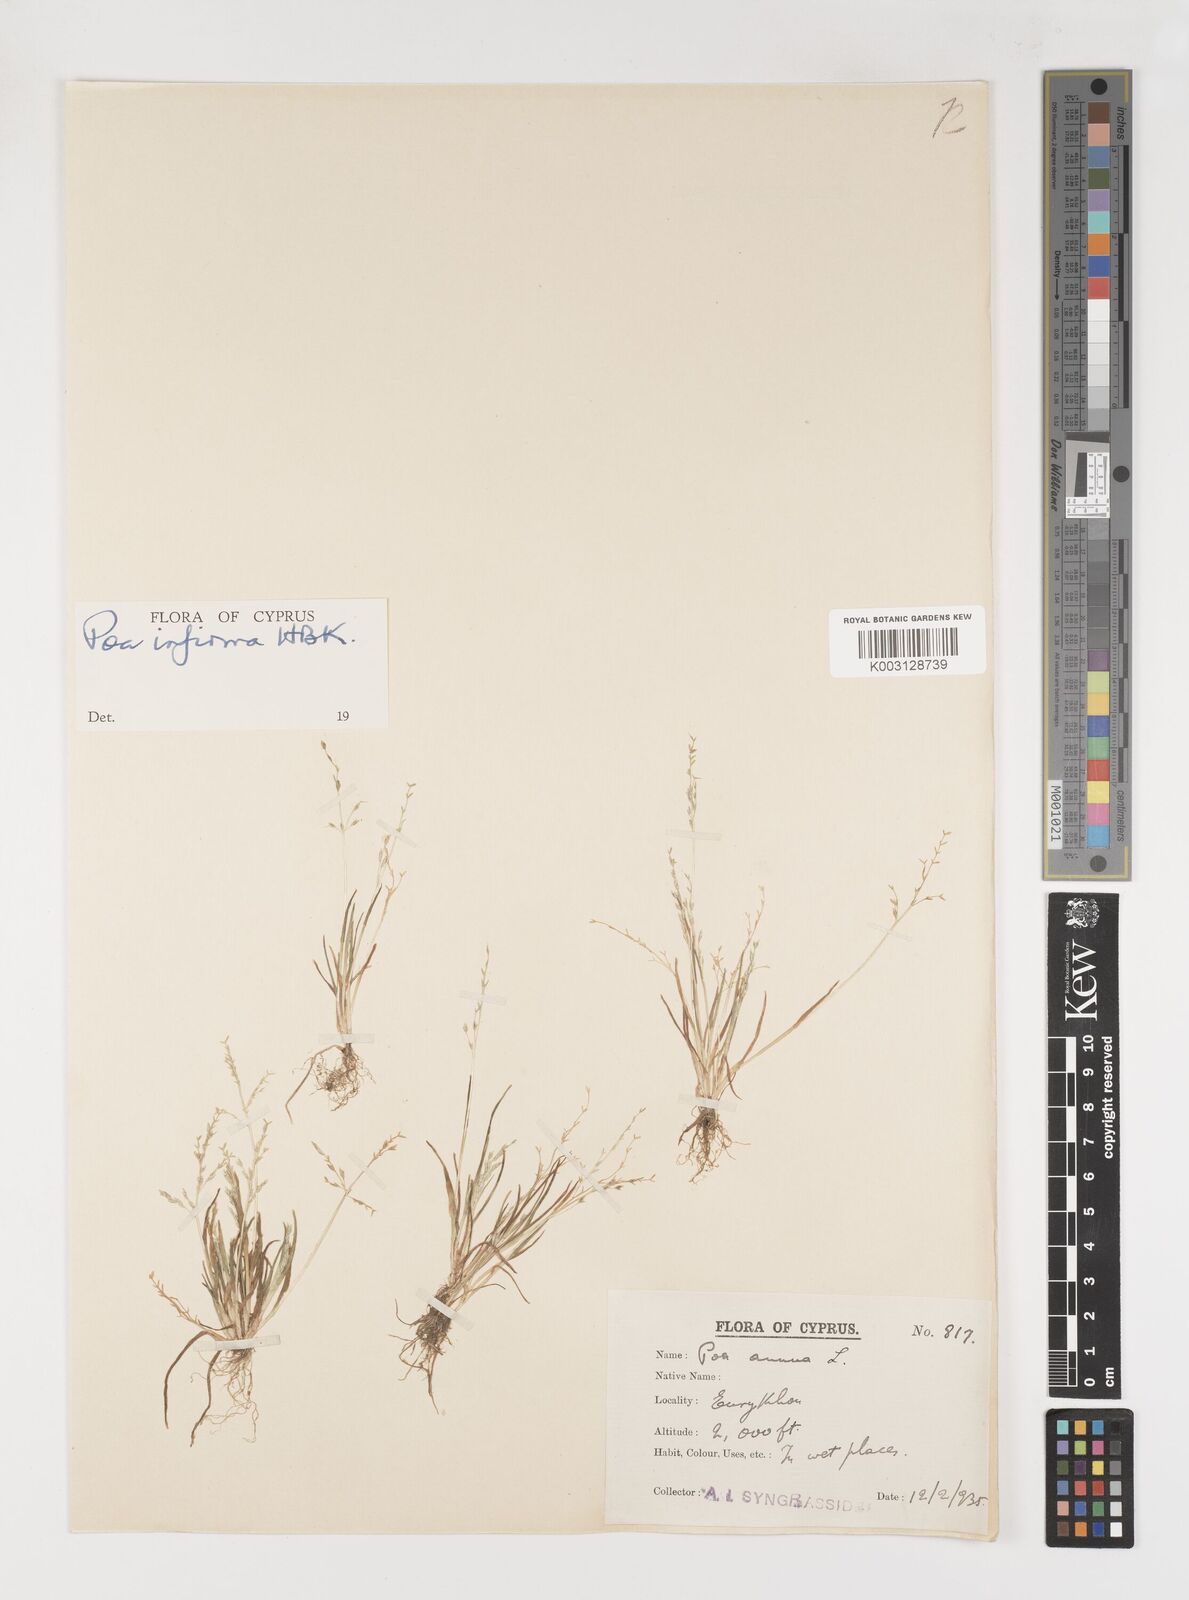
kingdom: Plantae
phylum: Tracheophyta
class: Liliopsida
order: Poales
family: Poaceae
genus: Poa
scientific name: Poa infirma
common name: Weak bluegrass
